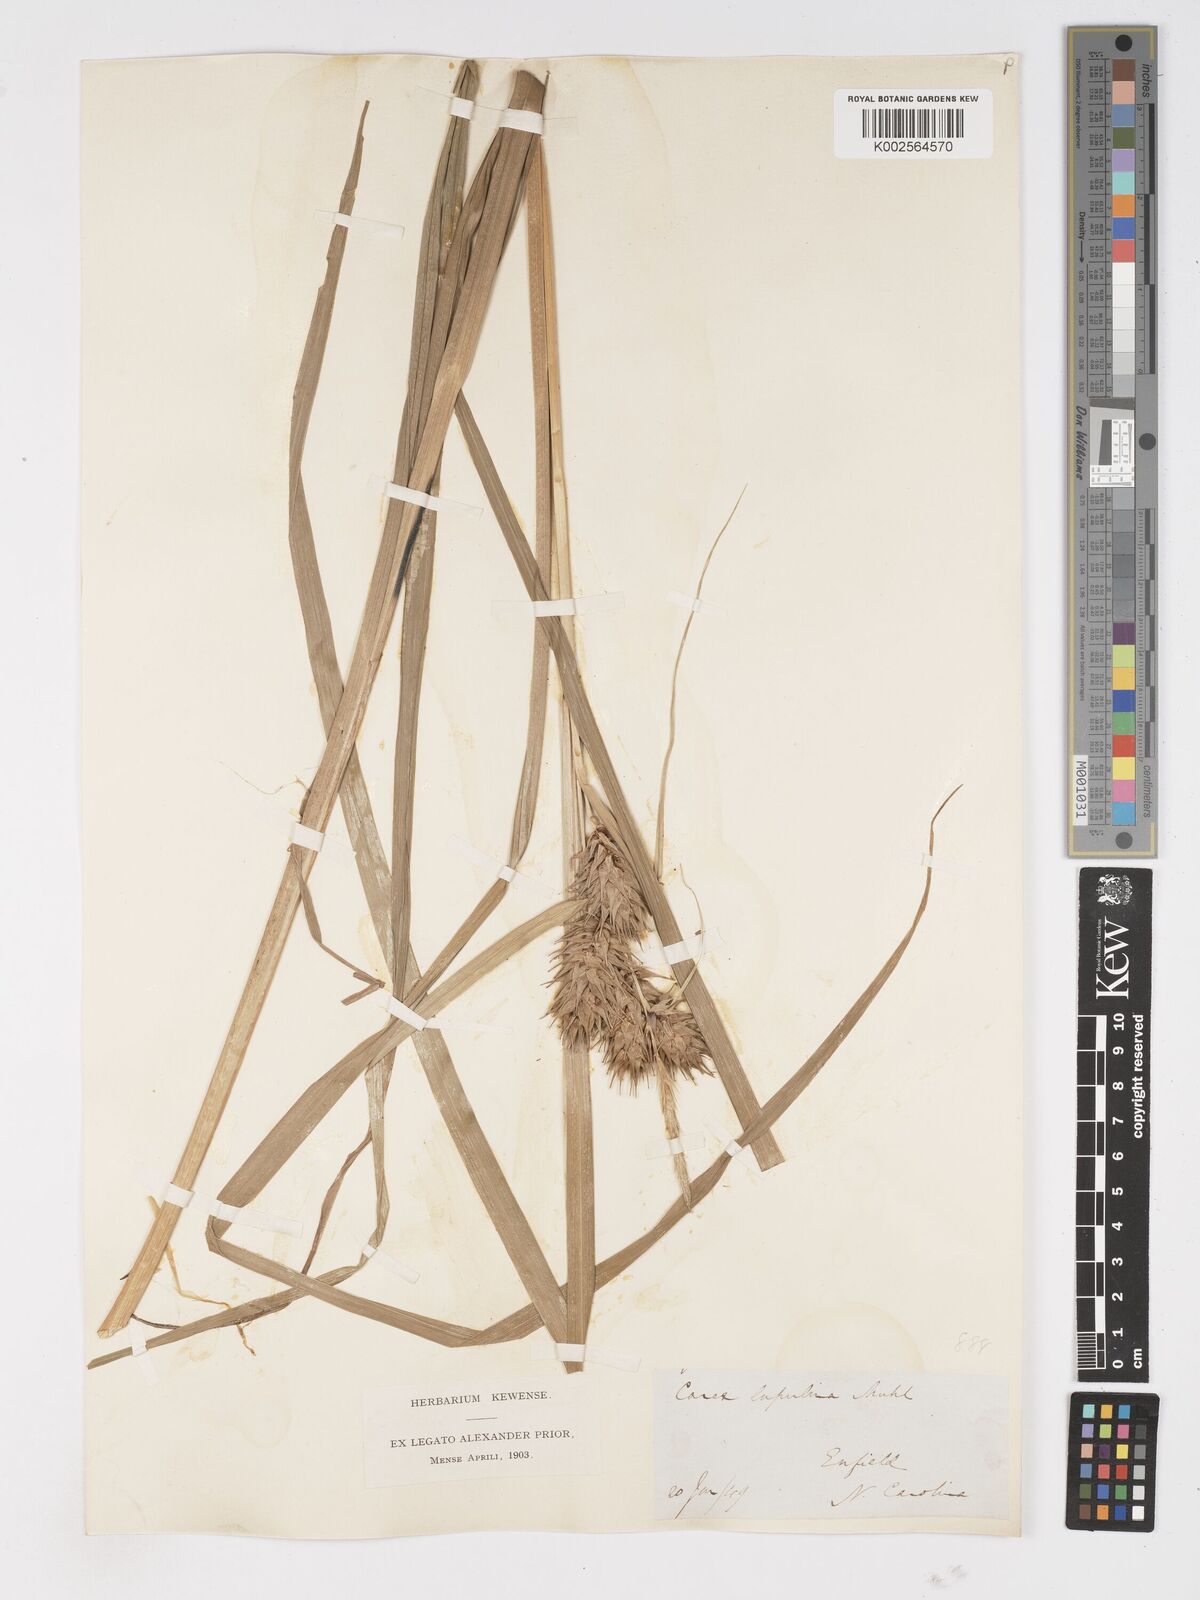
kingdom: Plantae
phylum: Tracheophyta
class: Liliopsida
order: Poales
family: Cyperaceae
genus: Carex
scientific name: Carex lupulina
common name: Hop sedge
